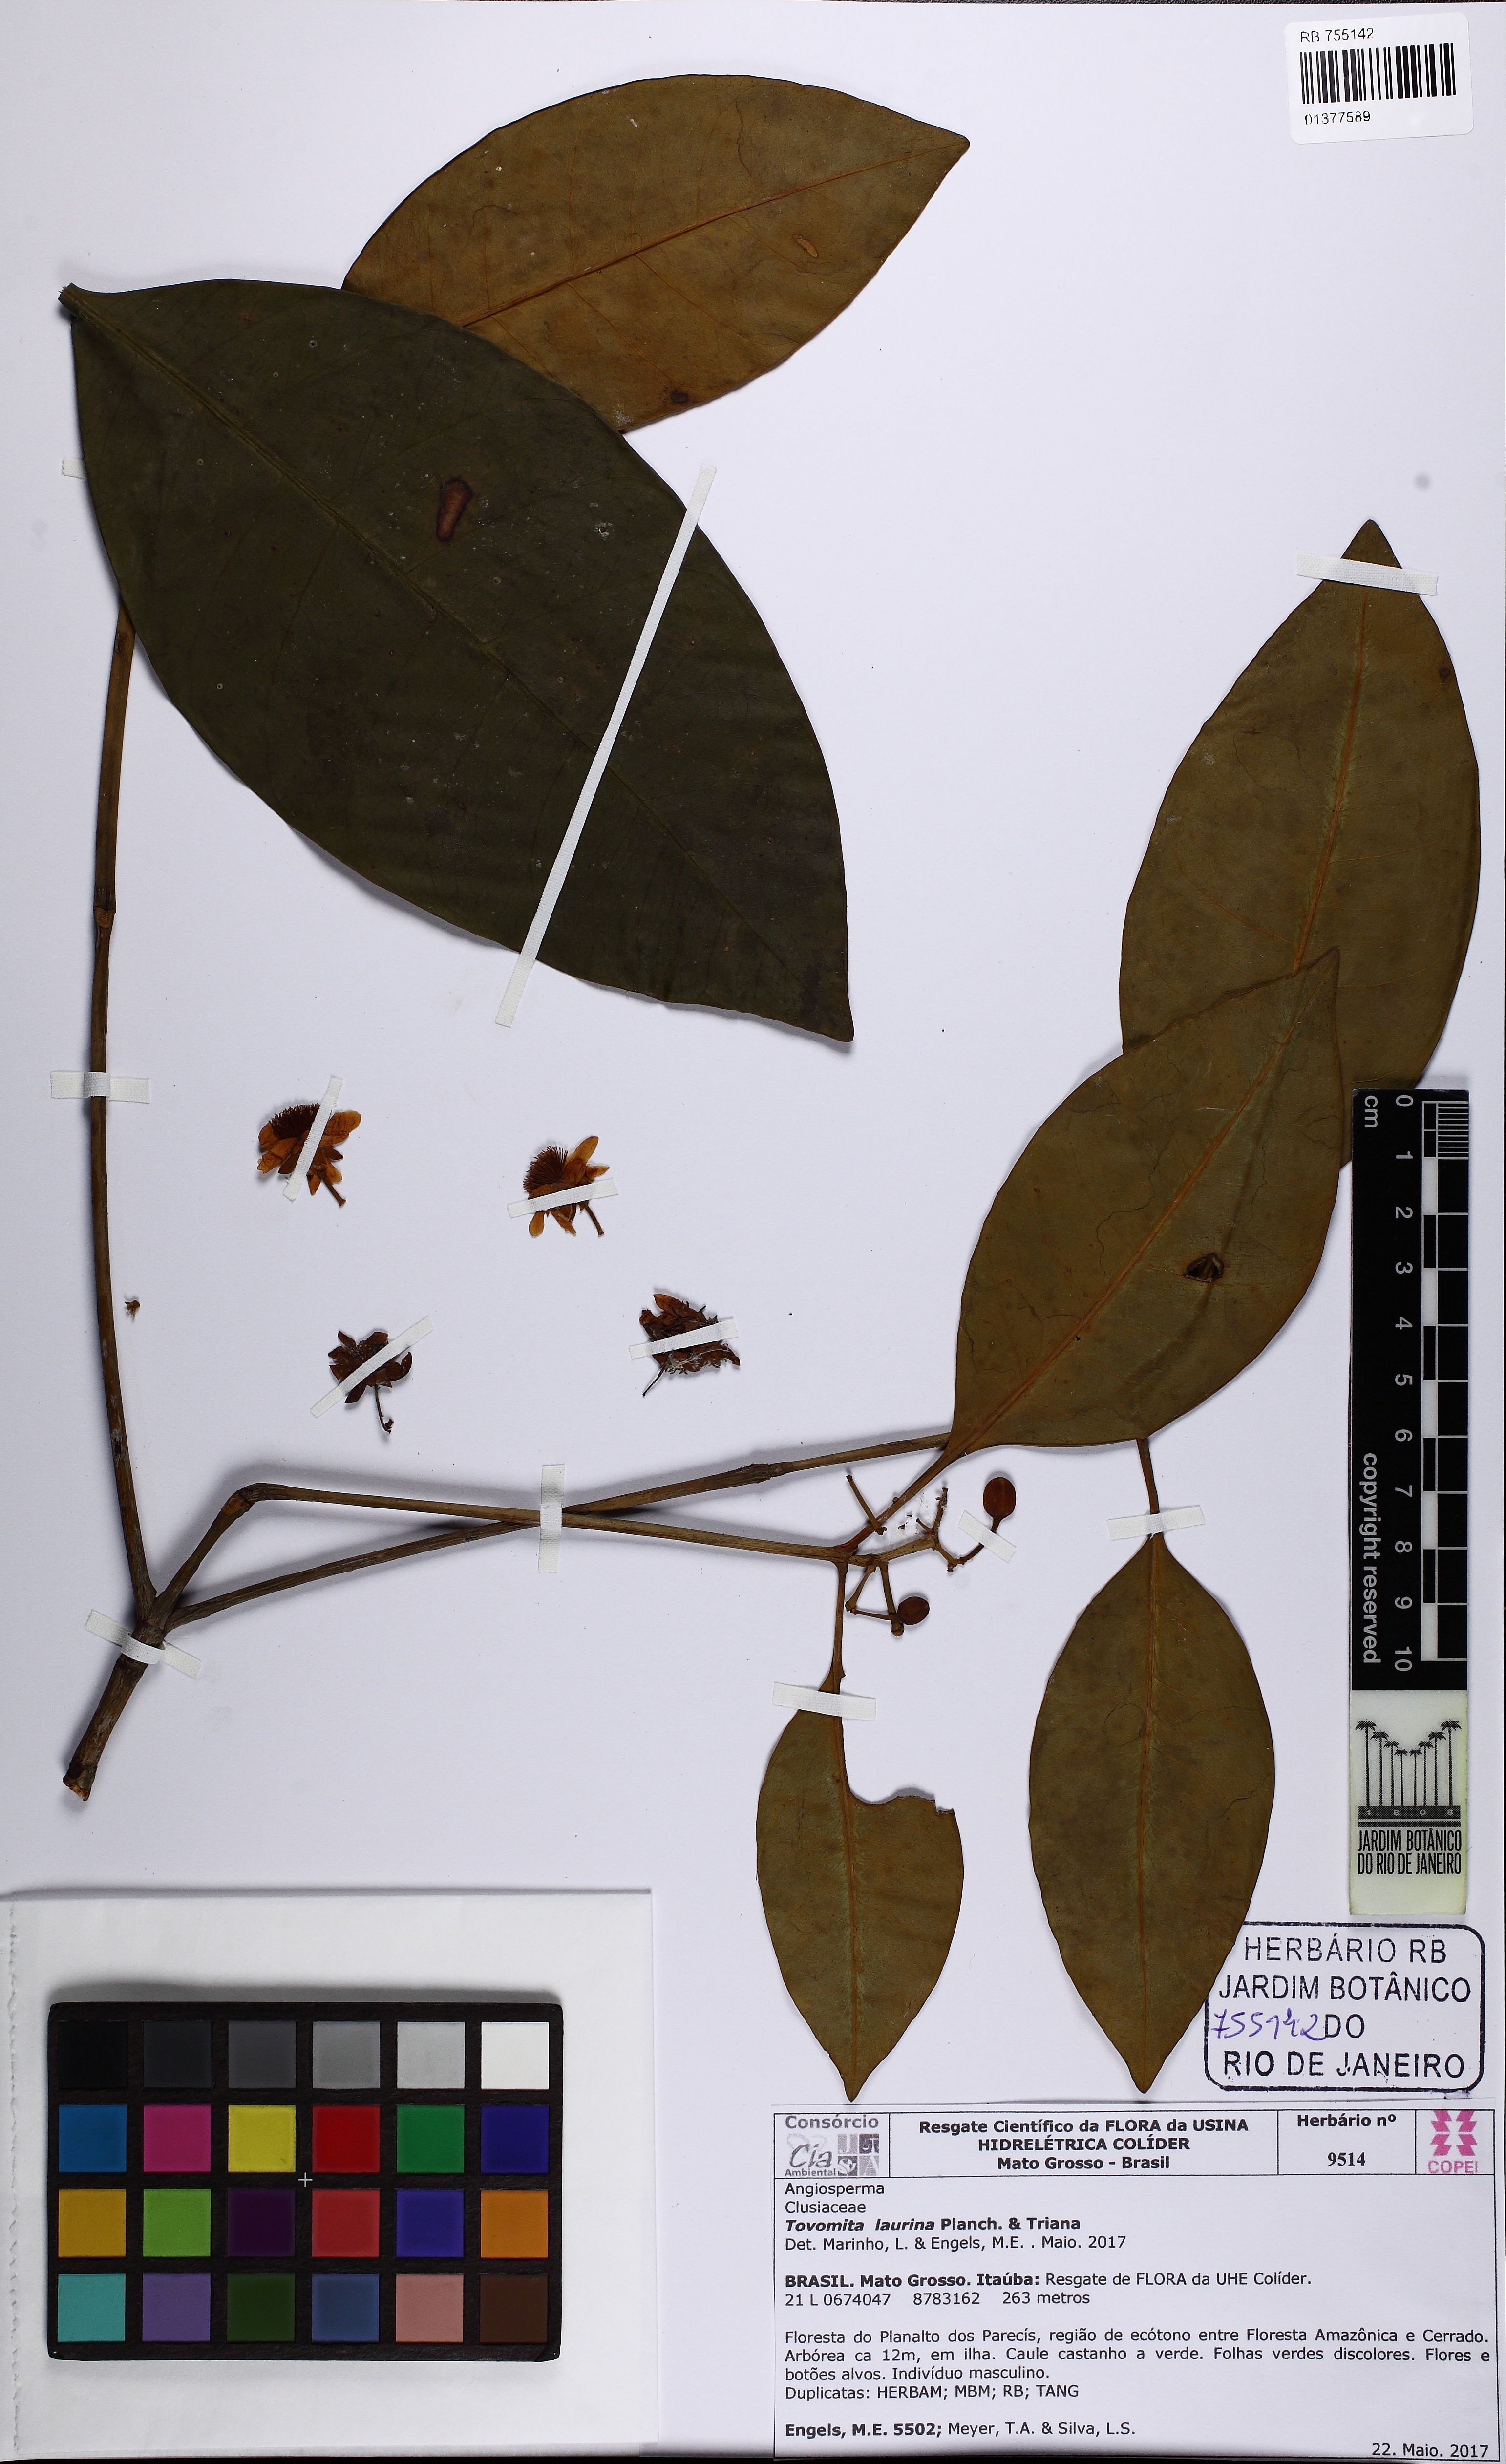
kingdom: Plantae
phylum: Tracheophyta
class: Magnoliopsida
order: Malpighiales
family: Clusiaceae
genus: Tovomita
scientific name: Tovomita laurina
